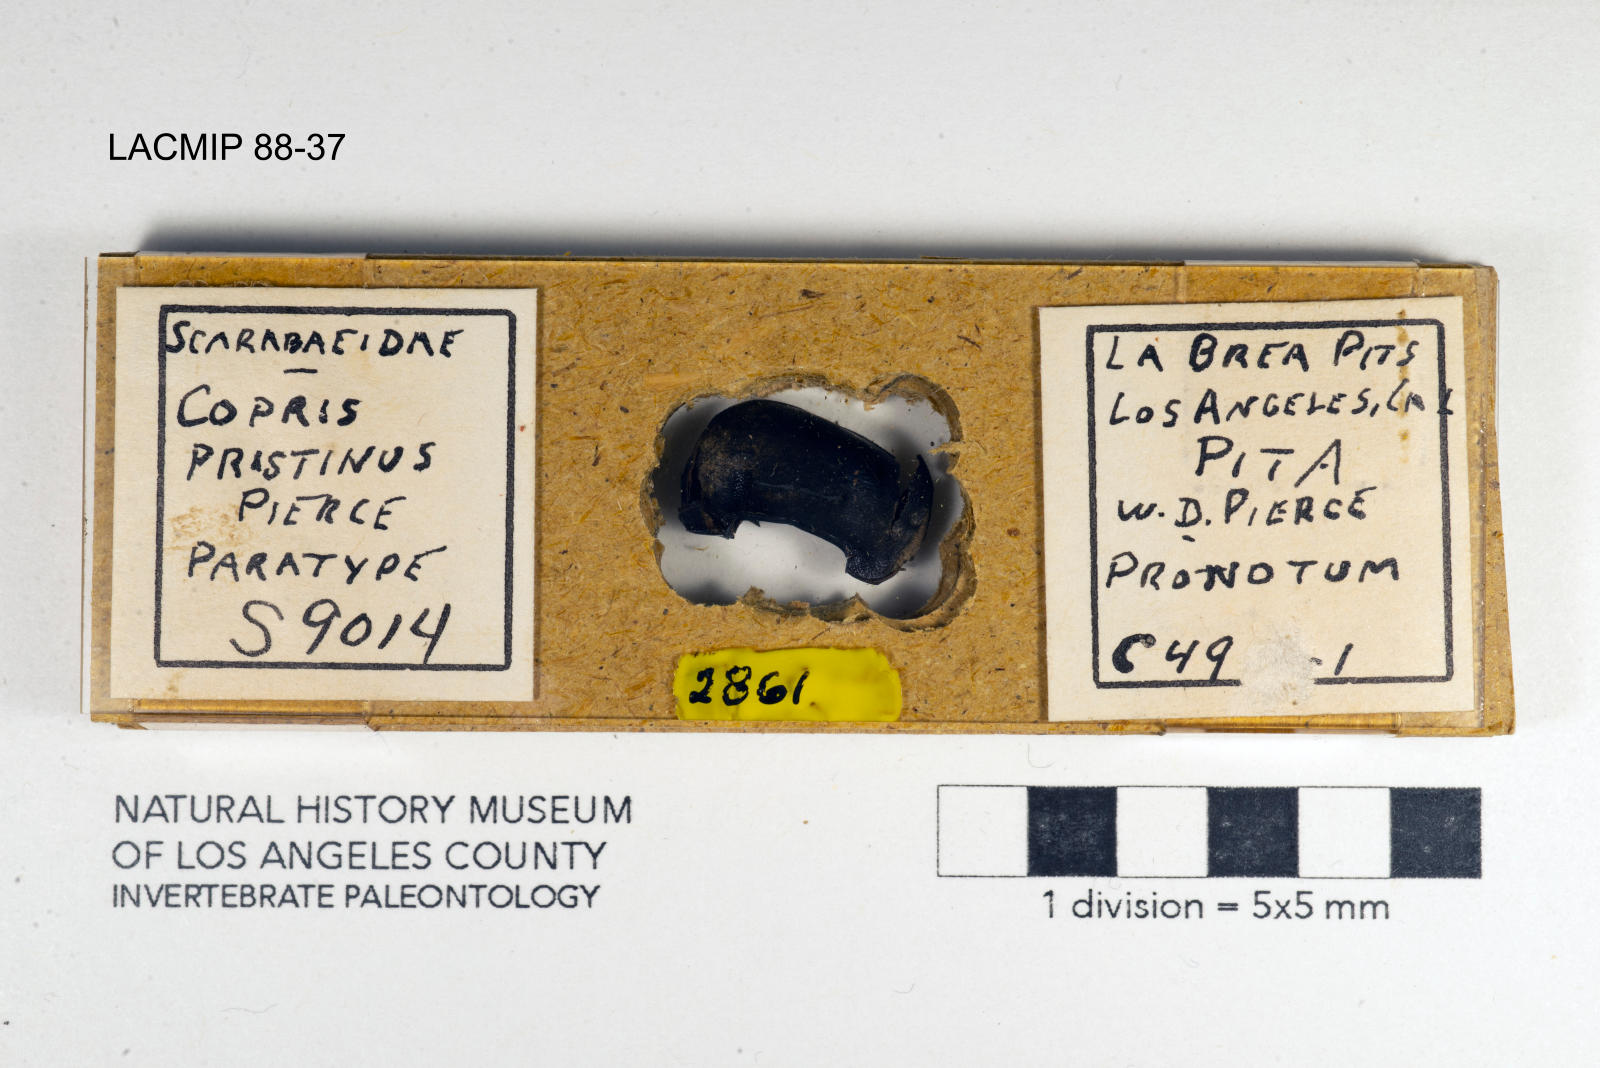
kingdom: Animalia
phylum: Arthropoda
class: Insecta
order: Coleoptera
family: Scarabaeidae
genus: Copris
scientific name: Copris pristinus
